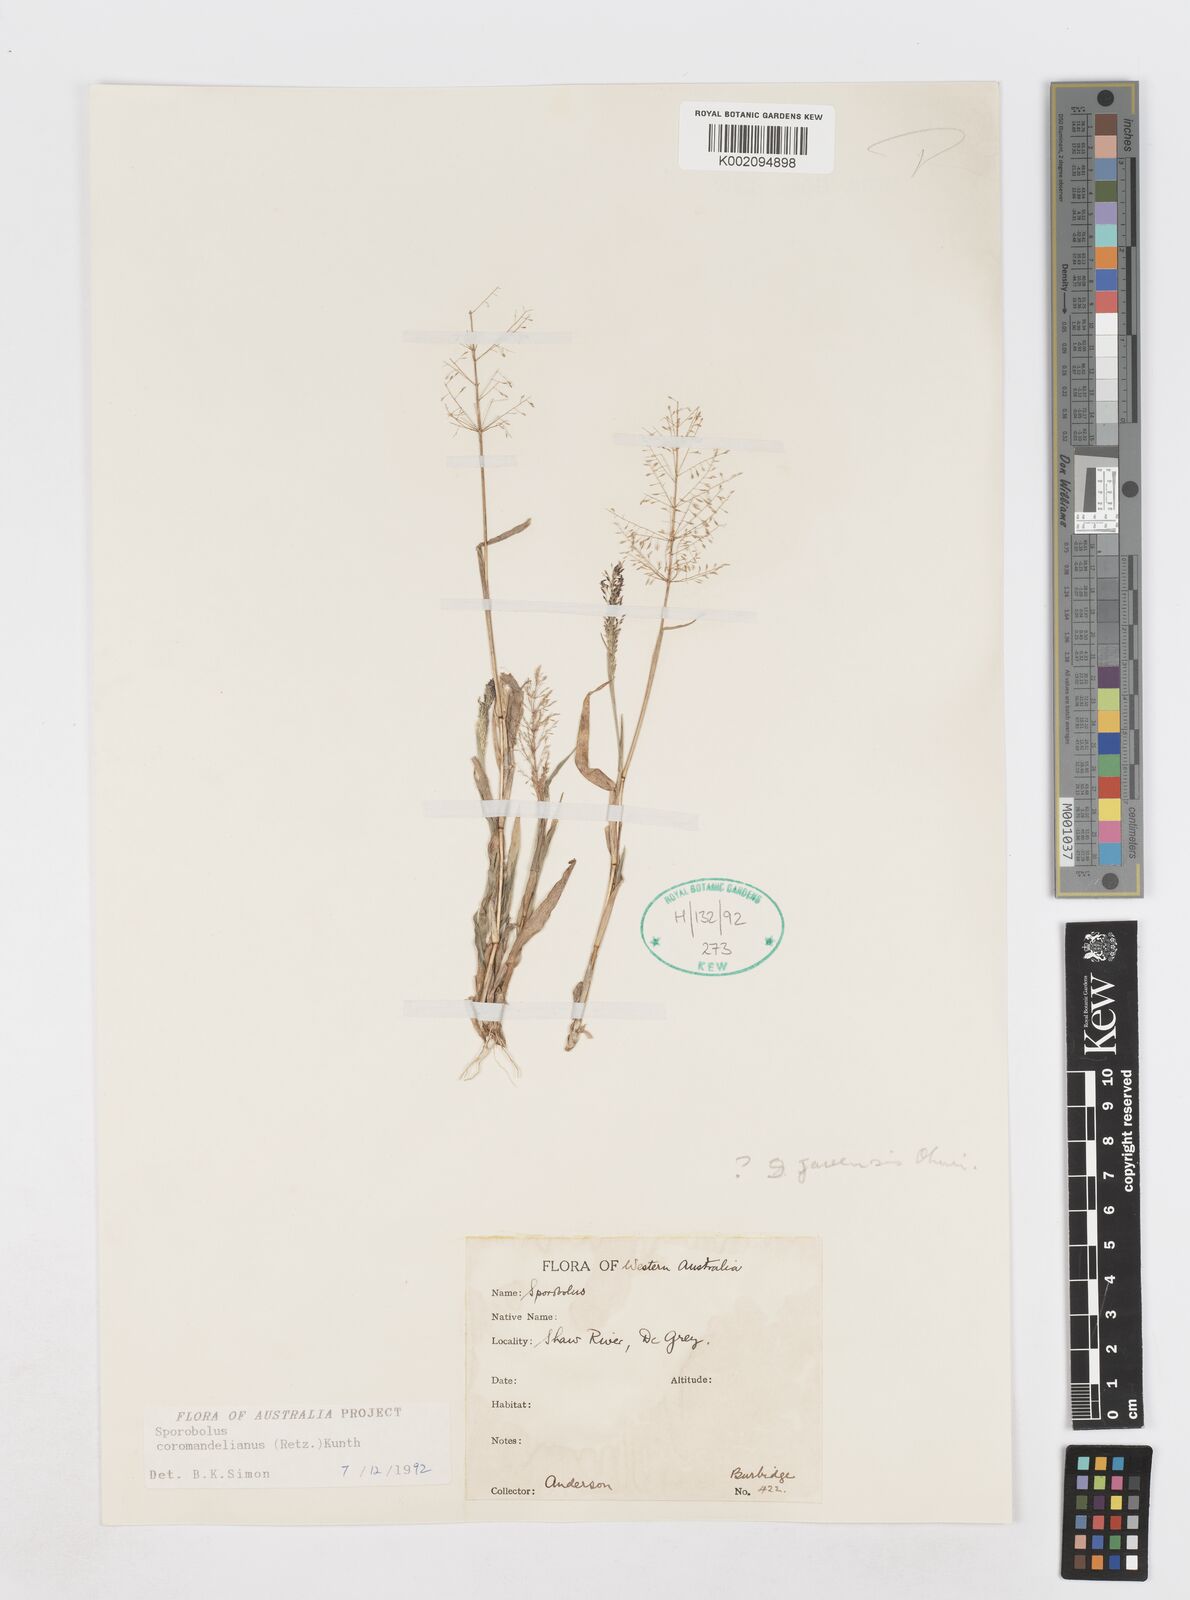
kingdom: Plantae
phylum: Tracheophyta
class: Liliopsida
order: Poales
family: Poaceae
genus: Sporobolus
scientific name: Sporobolus coromandelianus
